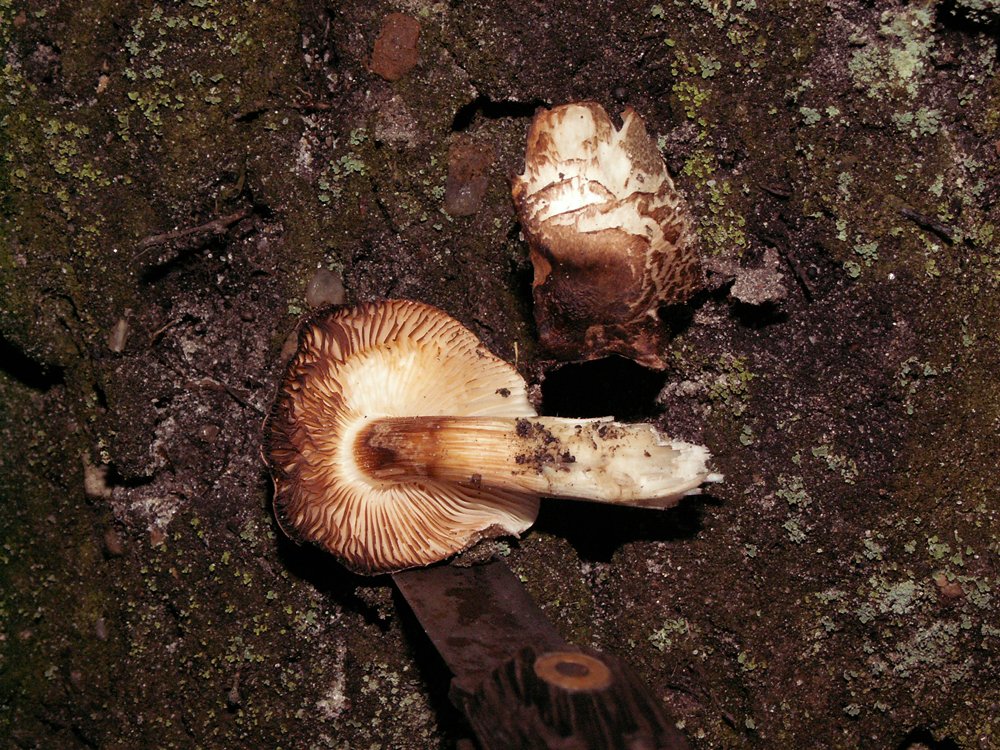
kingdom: Fungi
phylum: Basidiomycota
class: Agaricomycetes
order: Agaricales
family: Tricholomataceae
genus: Tricholoma
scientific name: Tricholoma saponaceum
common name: Soapy trich
